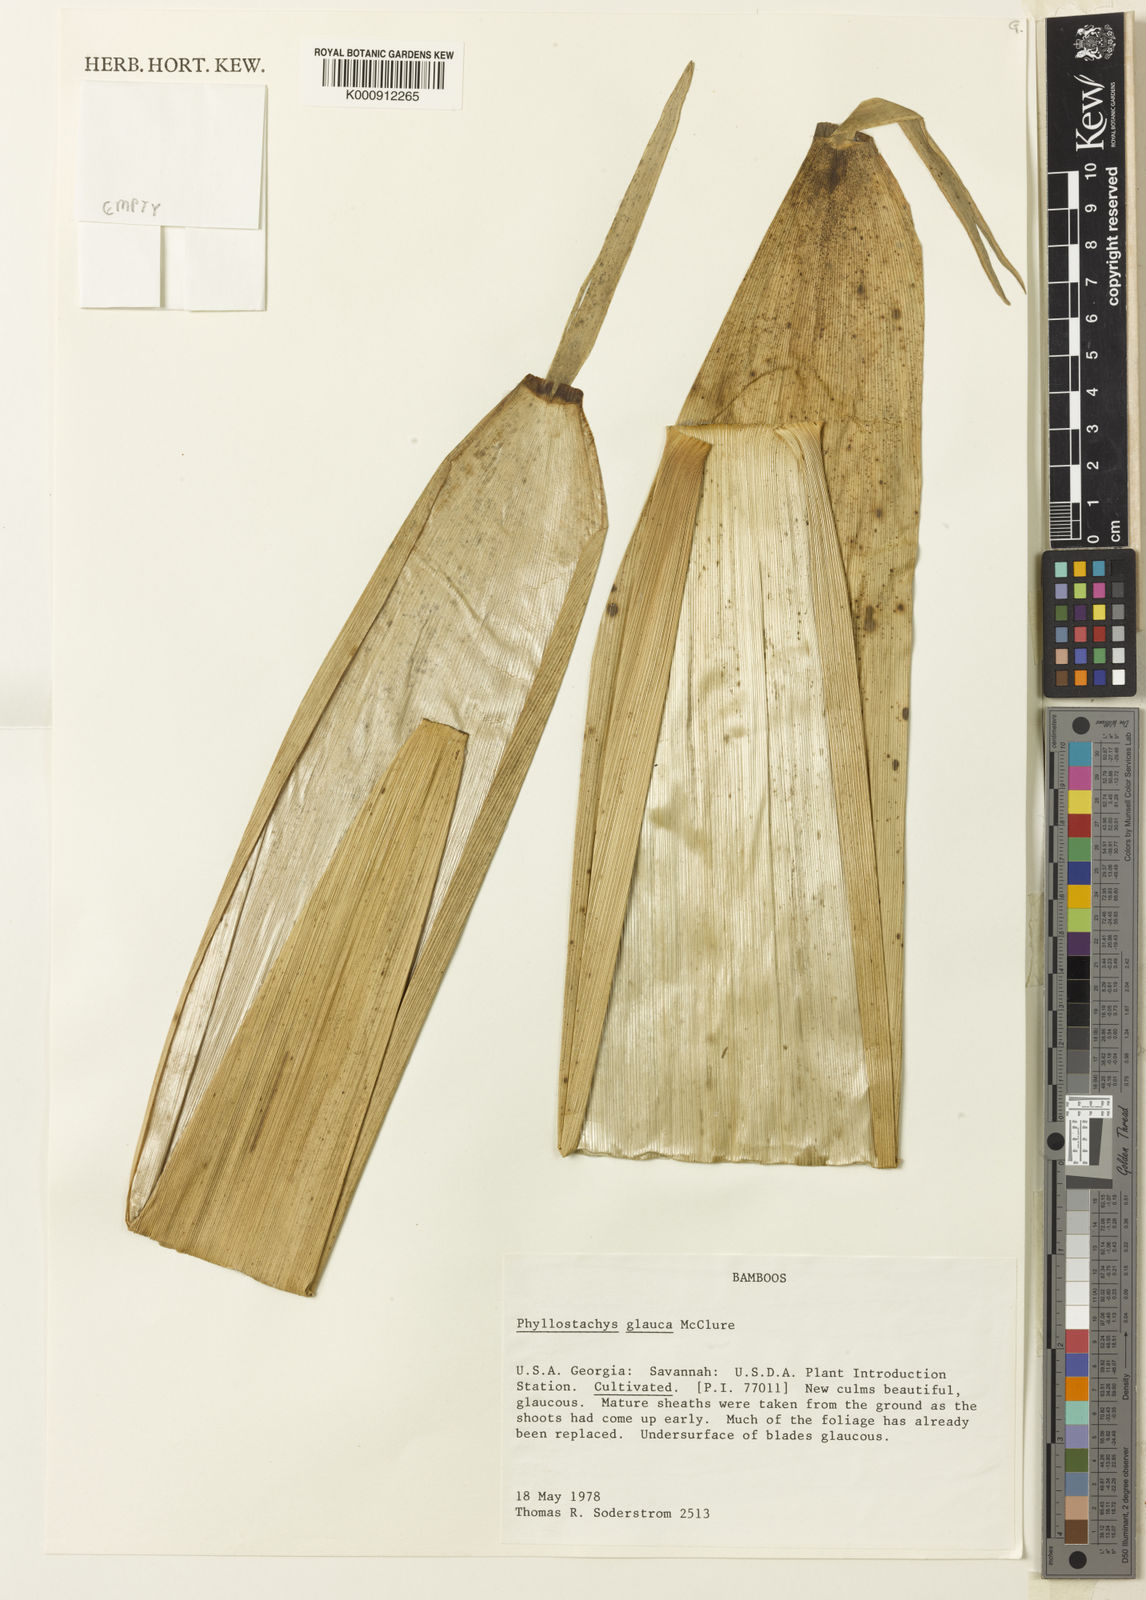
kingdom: Plantae
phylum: Tracheophyta
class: Liliopsida
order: Poales
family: Poaceae
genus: Phyllostachys
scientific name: Phyllostachys glauca
